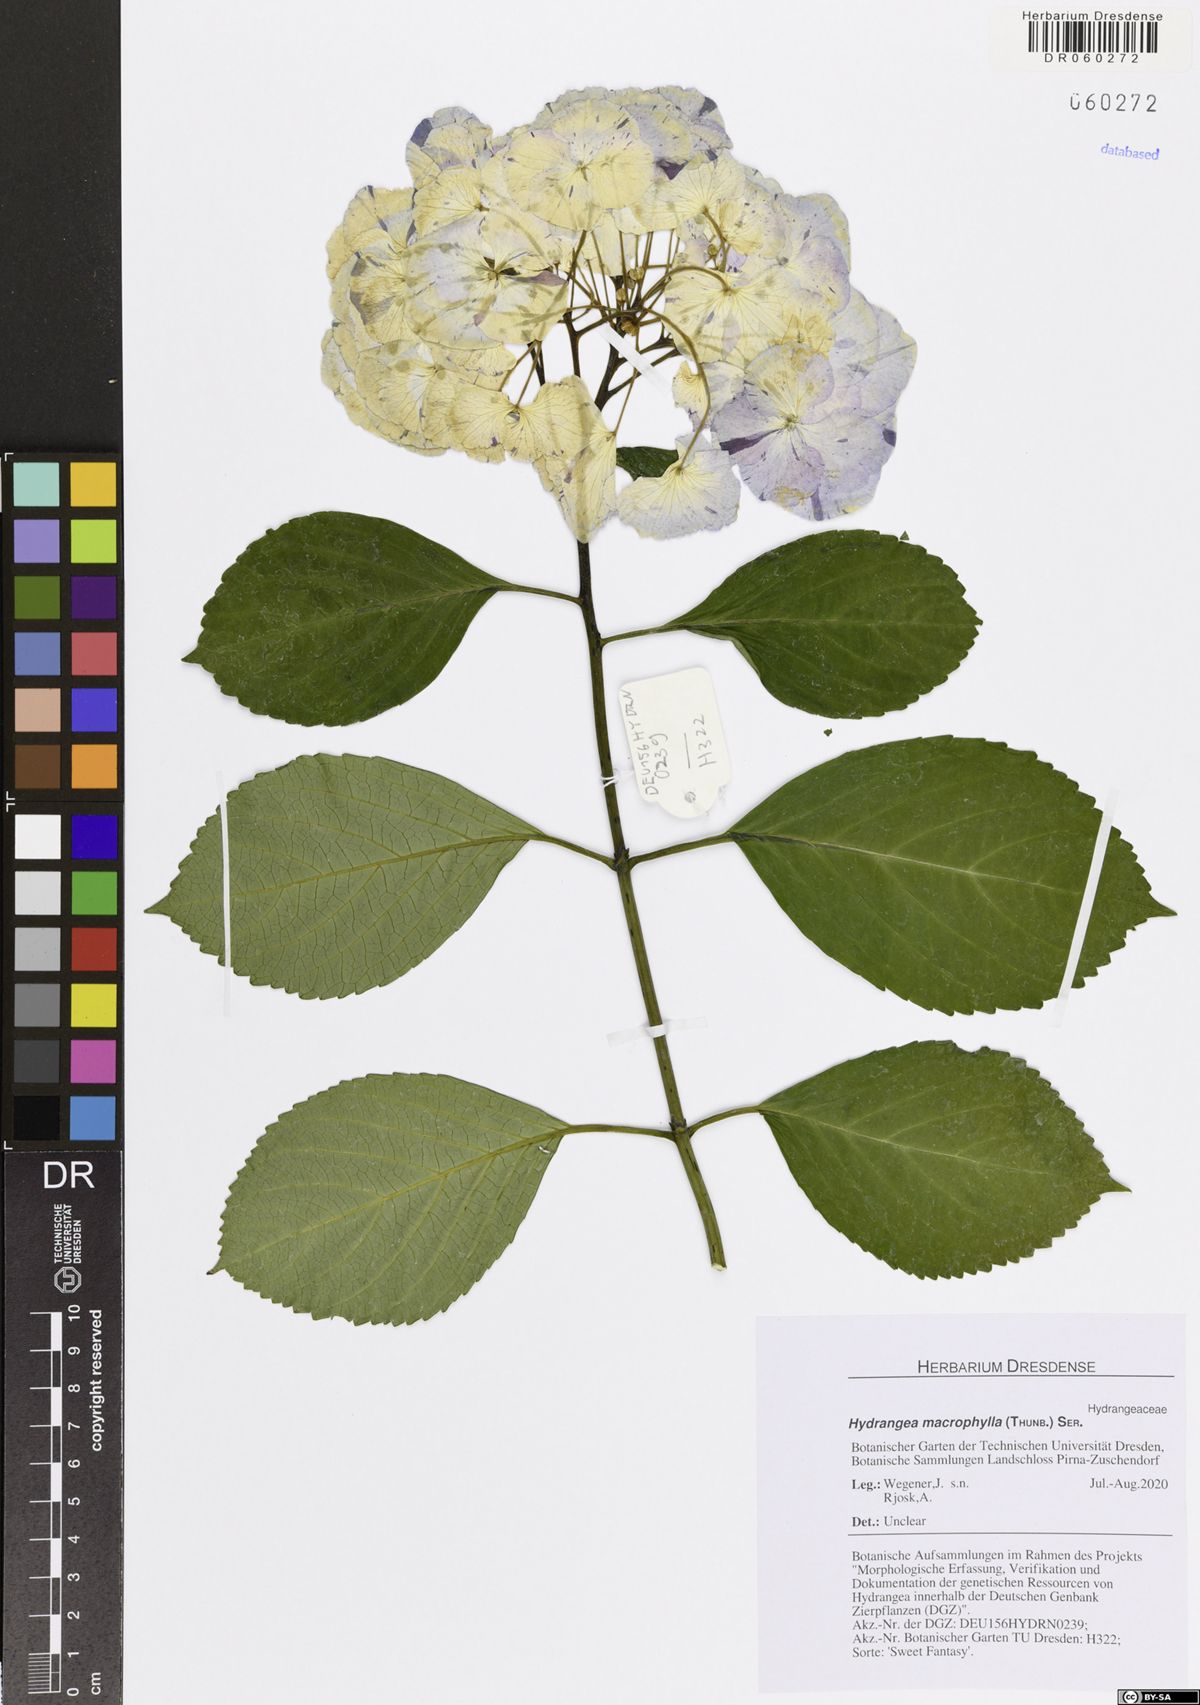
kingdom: Plantae
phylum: Tracheophyta
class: Magnoliopsida
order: Cornales
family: Hydrangeaceae
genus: Hydrangea
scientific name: Hydrangea macrophylla
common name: Hydrangea
